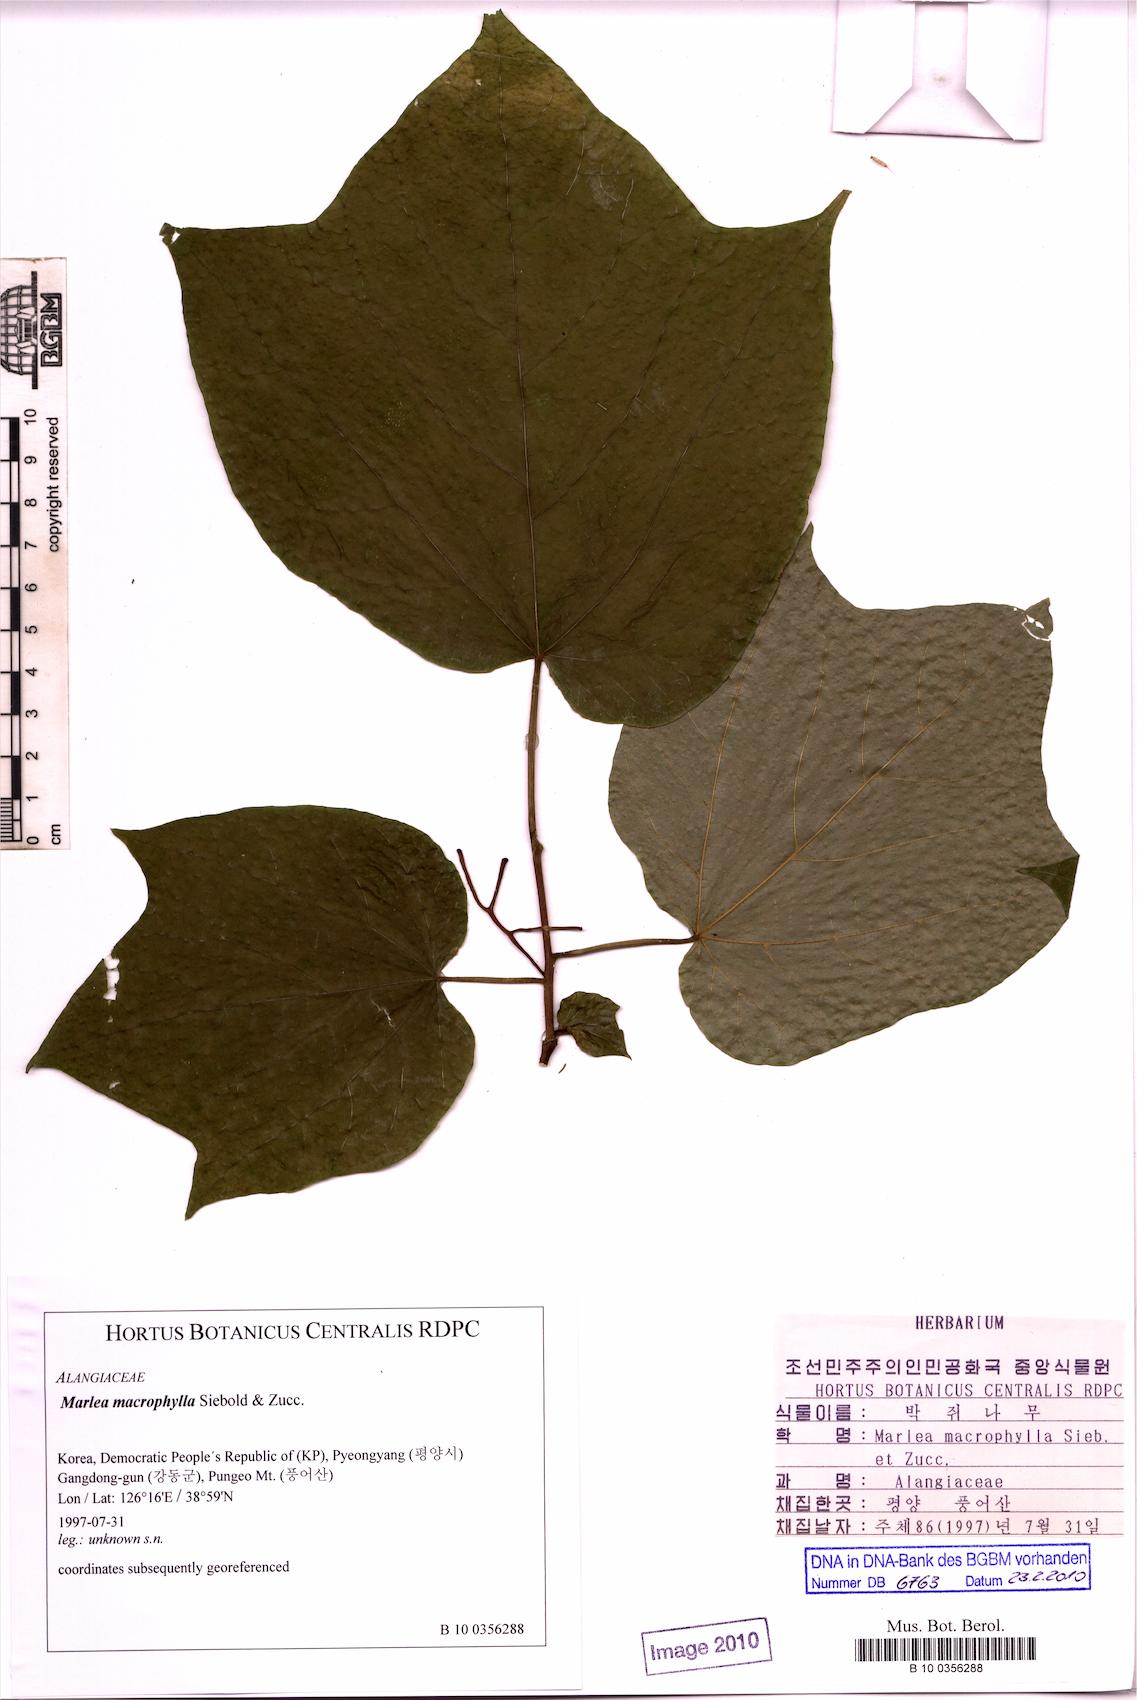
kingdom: Plantae
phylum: Tracheophyta
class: Magnoliopsida
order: Cornales
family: Cornaceae
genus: Alangium
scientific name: Alangium platanifolium
